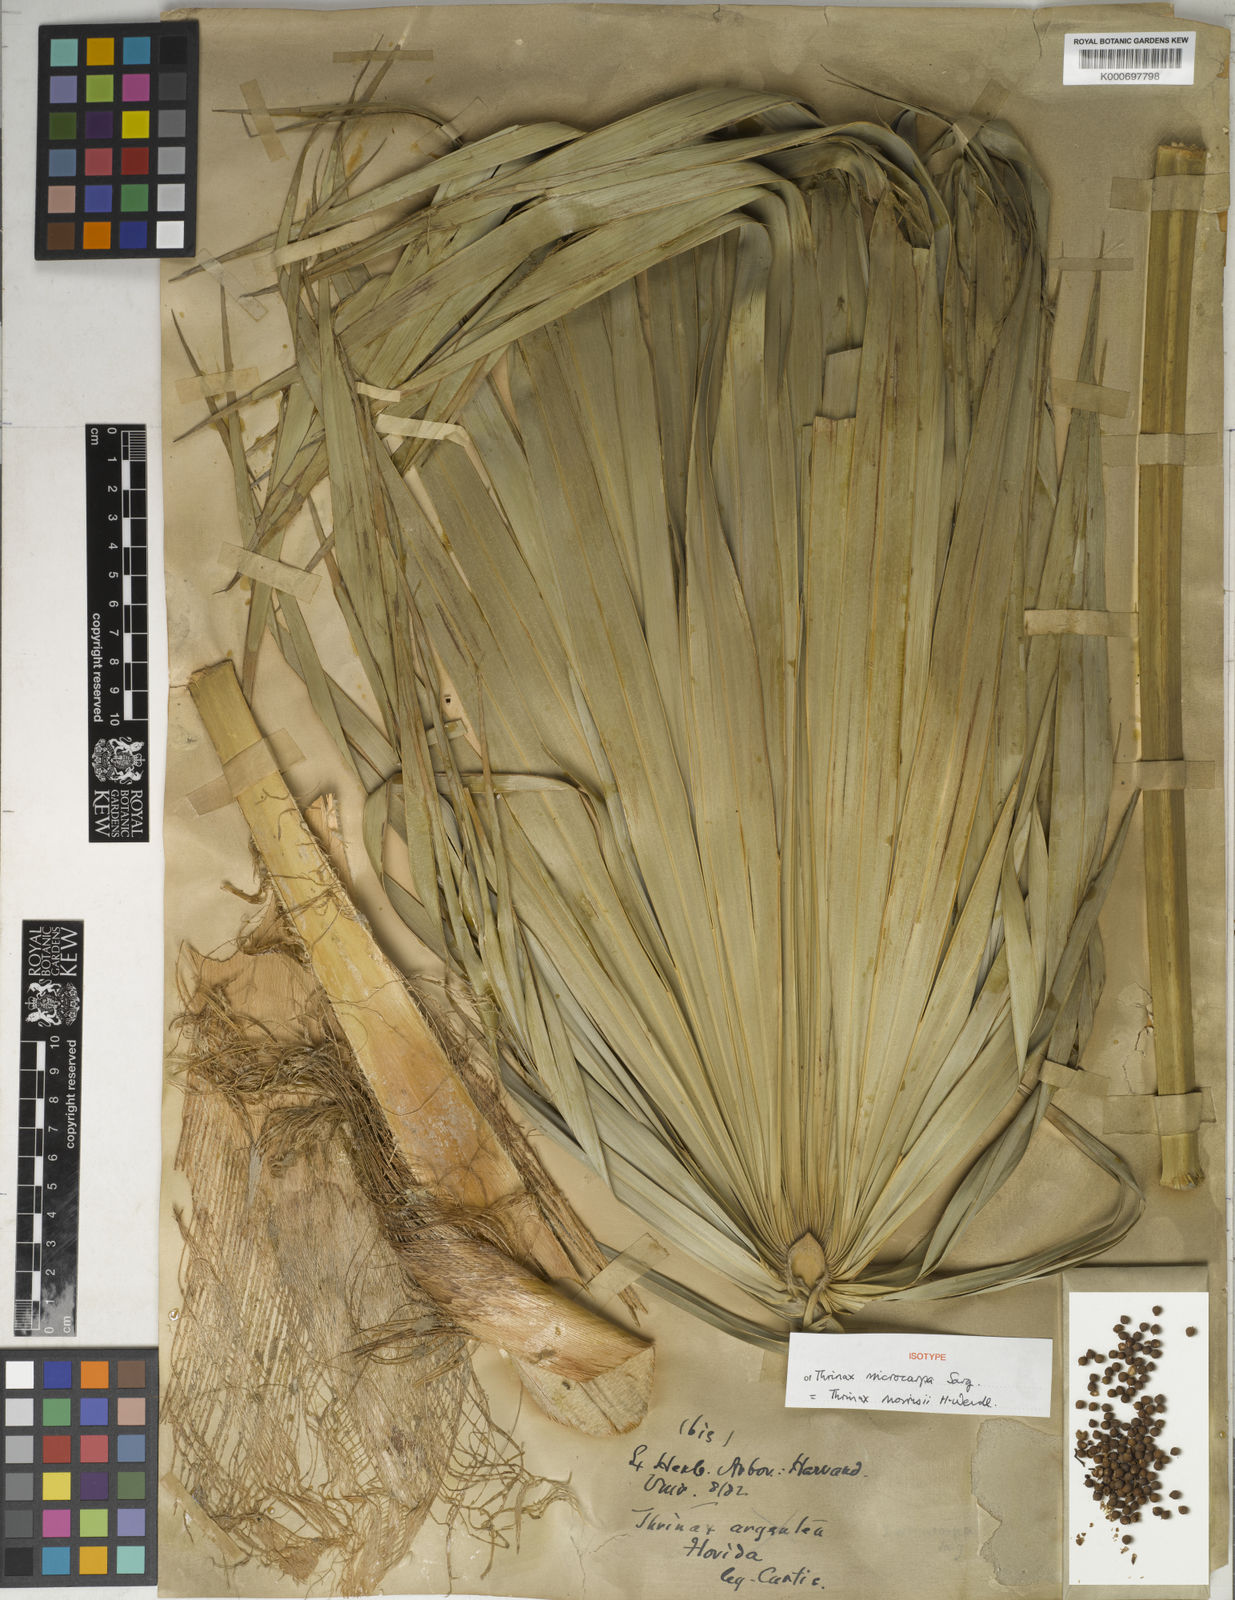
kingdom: Plantae
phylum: Tracheophyta
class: Liliopsida
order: Arecales
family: Arecaceae
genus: Leucothrinax
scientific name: Leucothrinax morrisii
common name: Key palm
